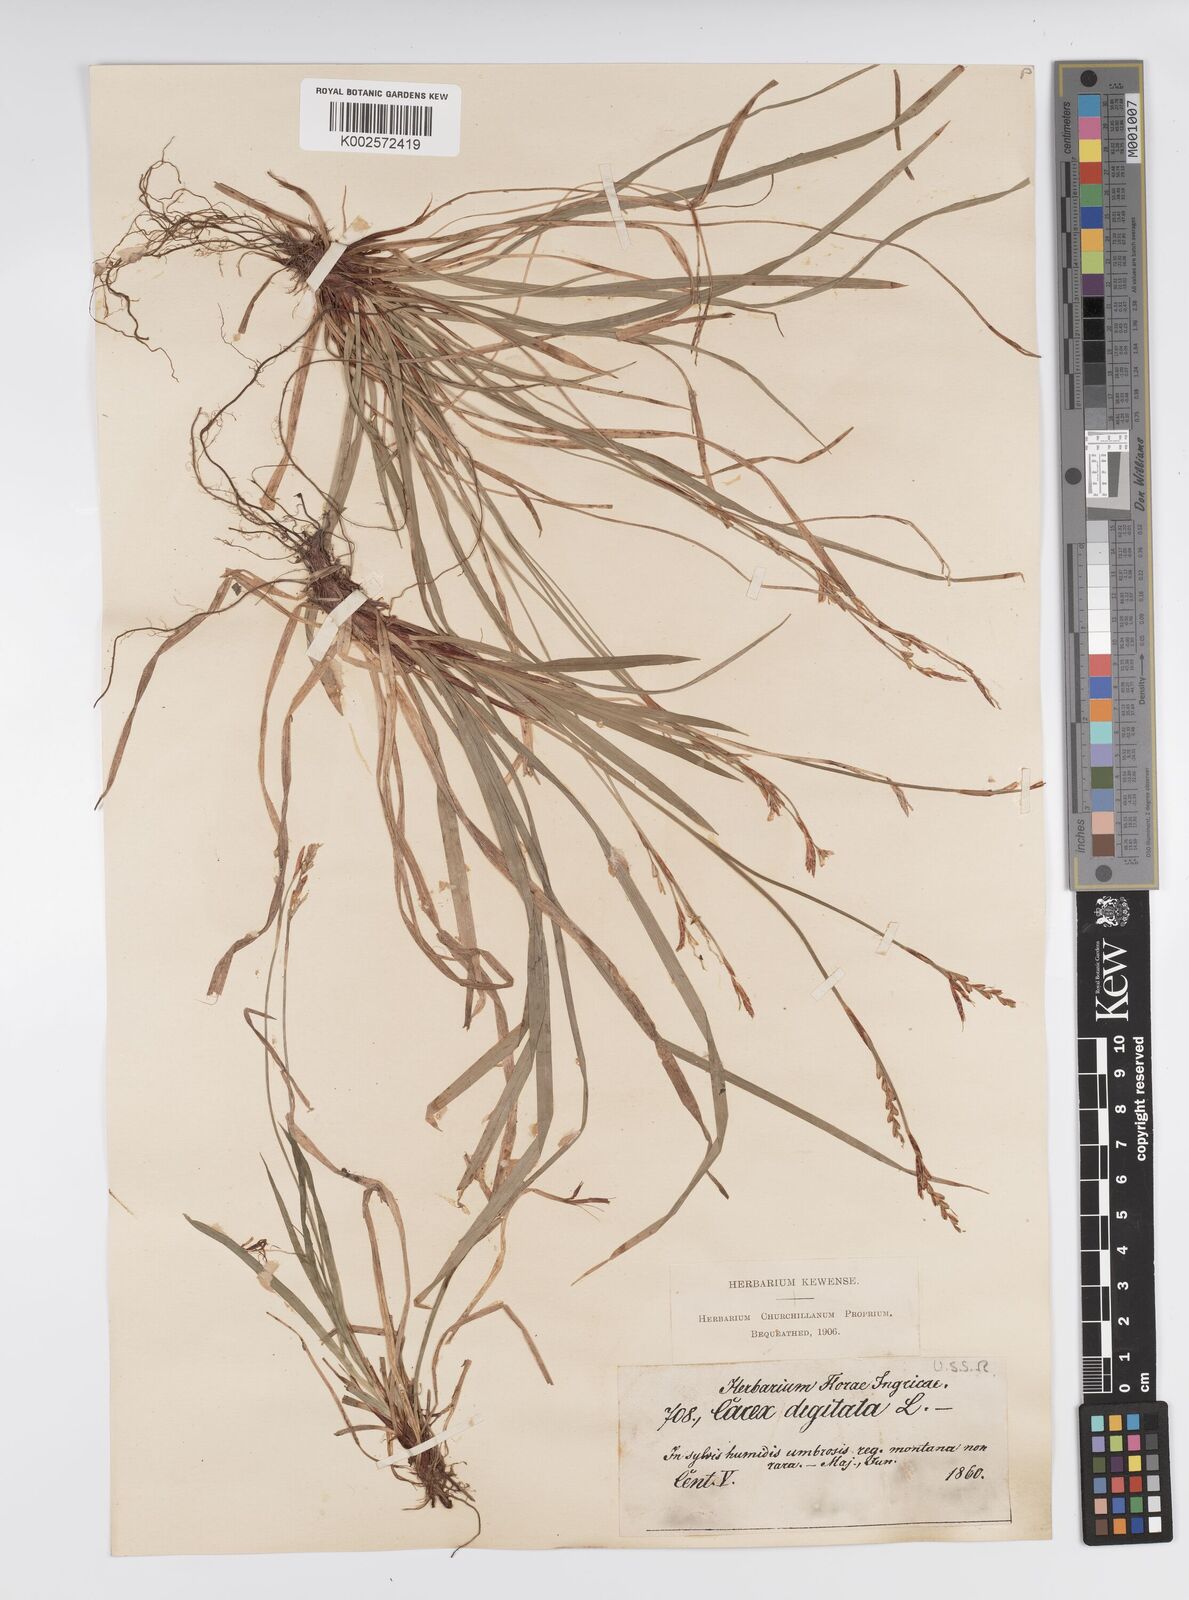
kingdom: Plantae
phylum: Tracheophyta
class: Liliopsida
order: Poales
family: Cyperaceae
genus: Carex
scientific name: Carex digitata
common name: Fingered sedge
